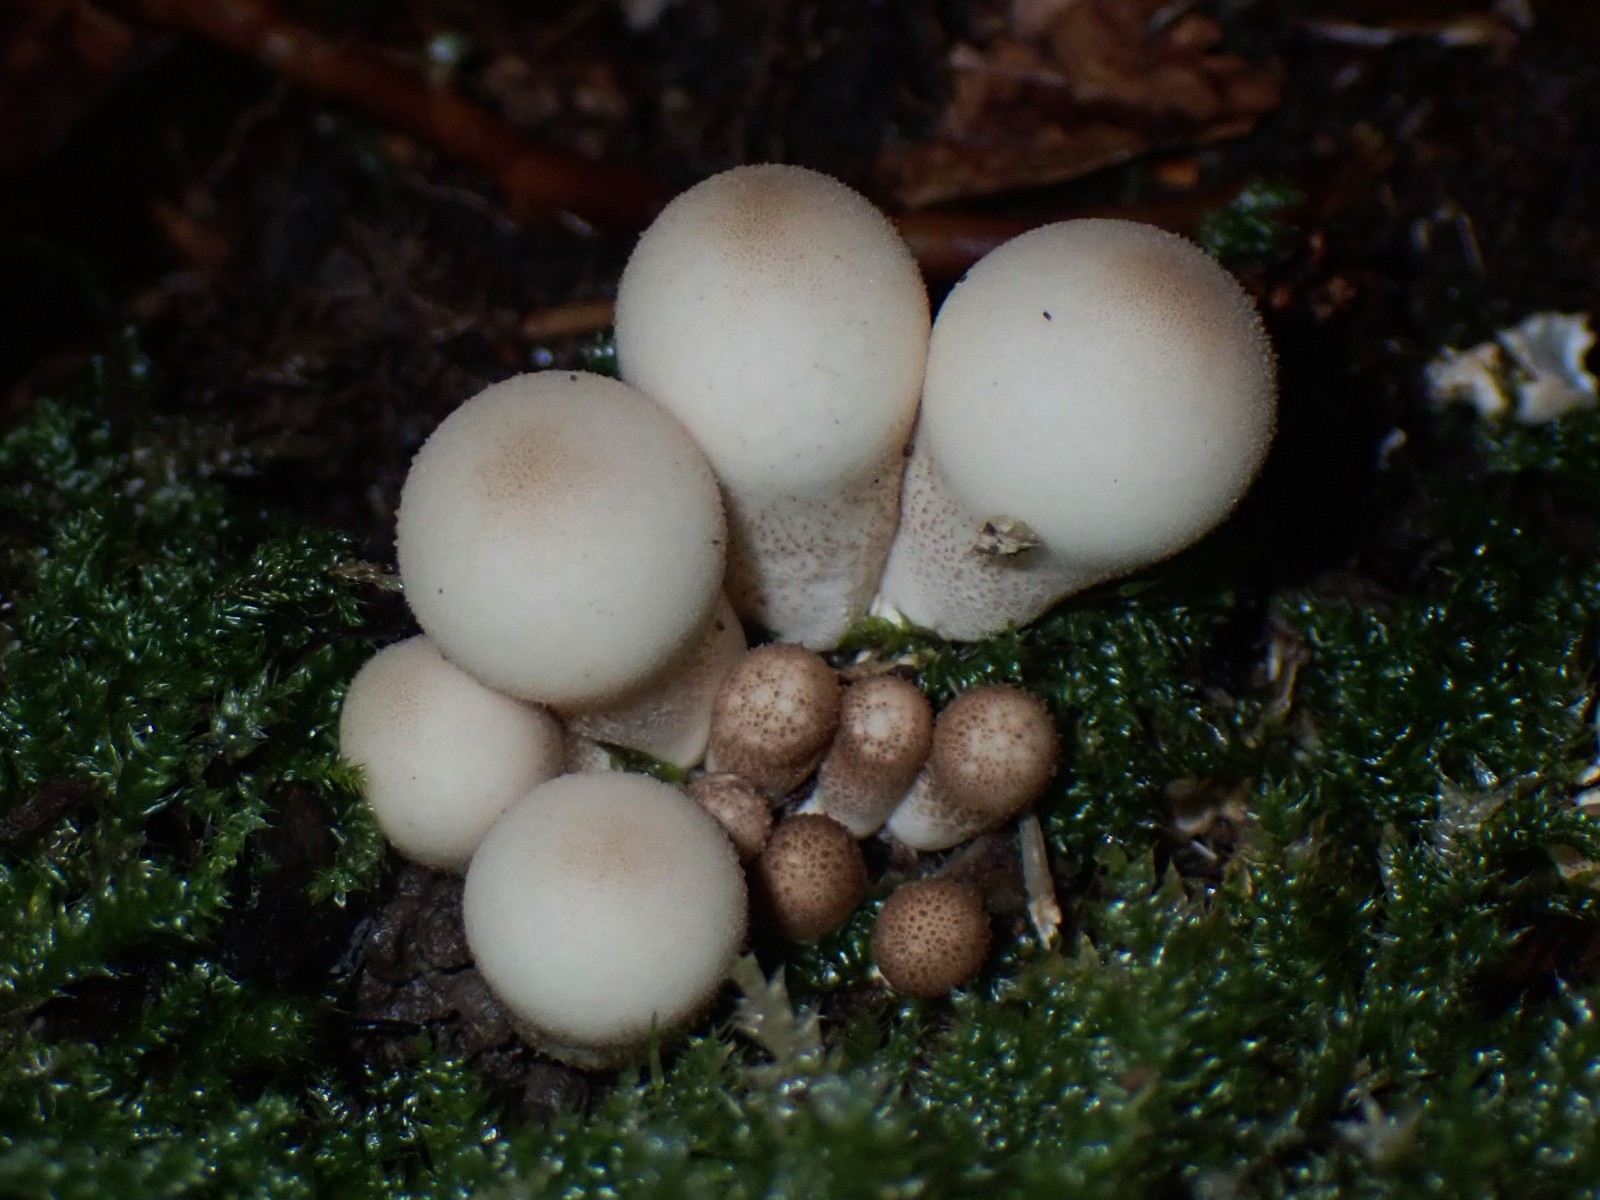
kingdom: Fungi
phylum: Basidiomycota
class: Agaricomycetes
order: Agaricales
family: Lycoperdaceae
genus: Apioperdon
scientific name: Apioperdon pyriforme
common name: pære-støvbold
